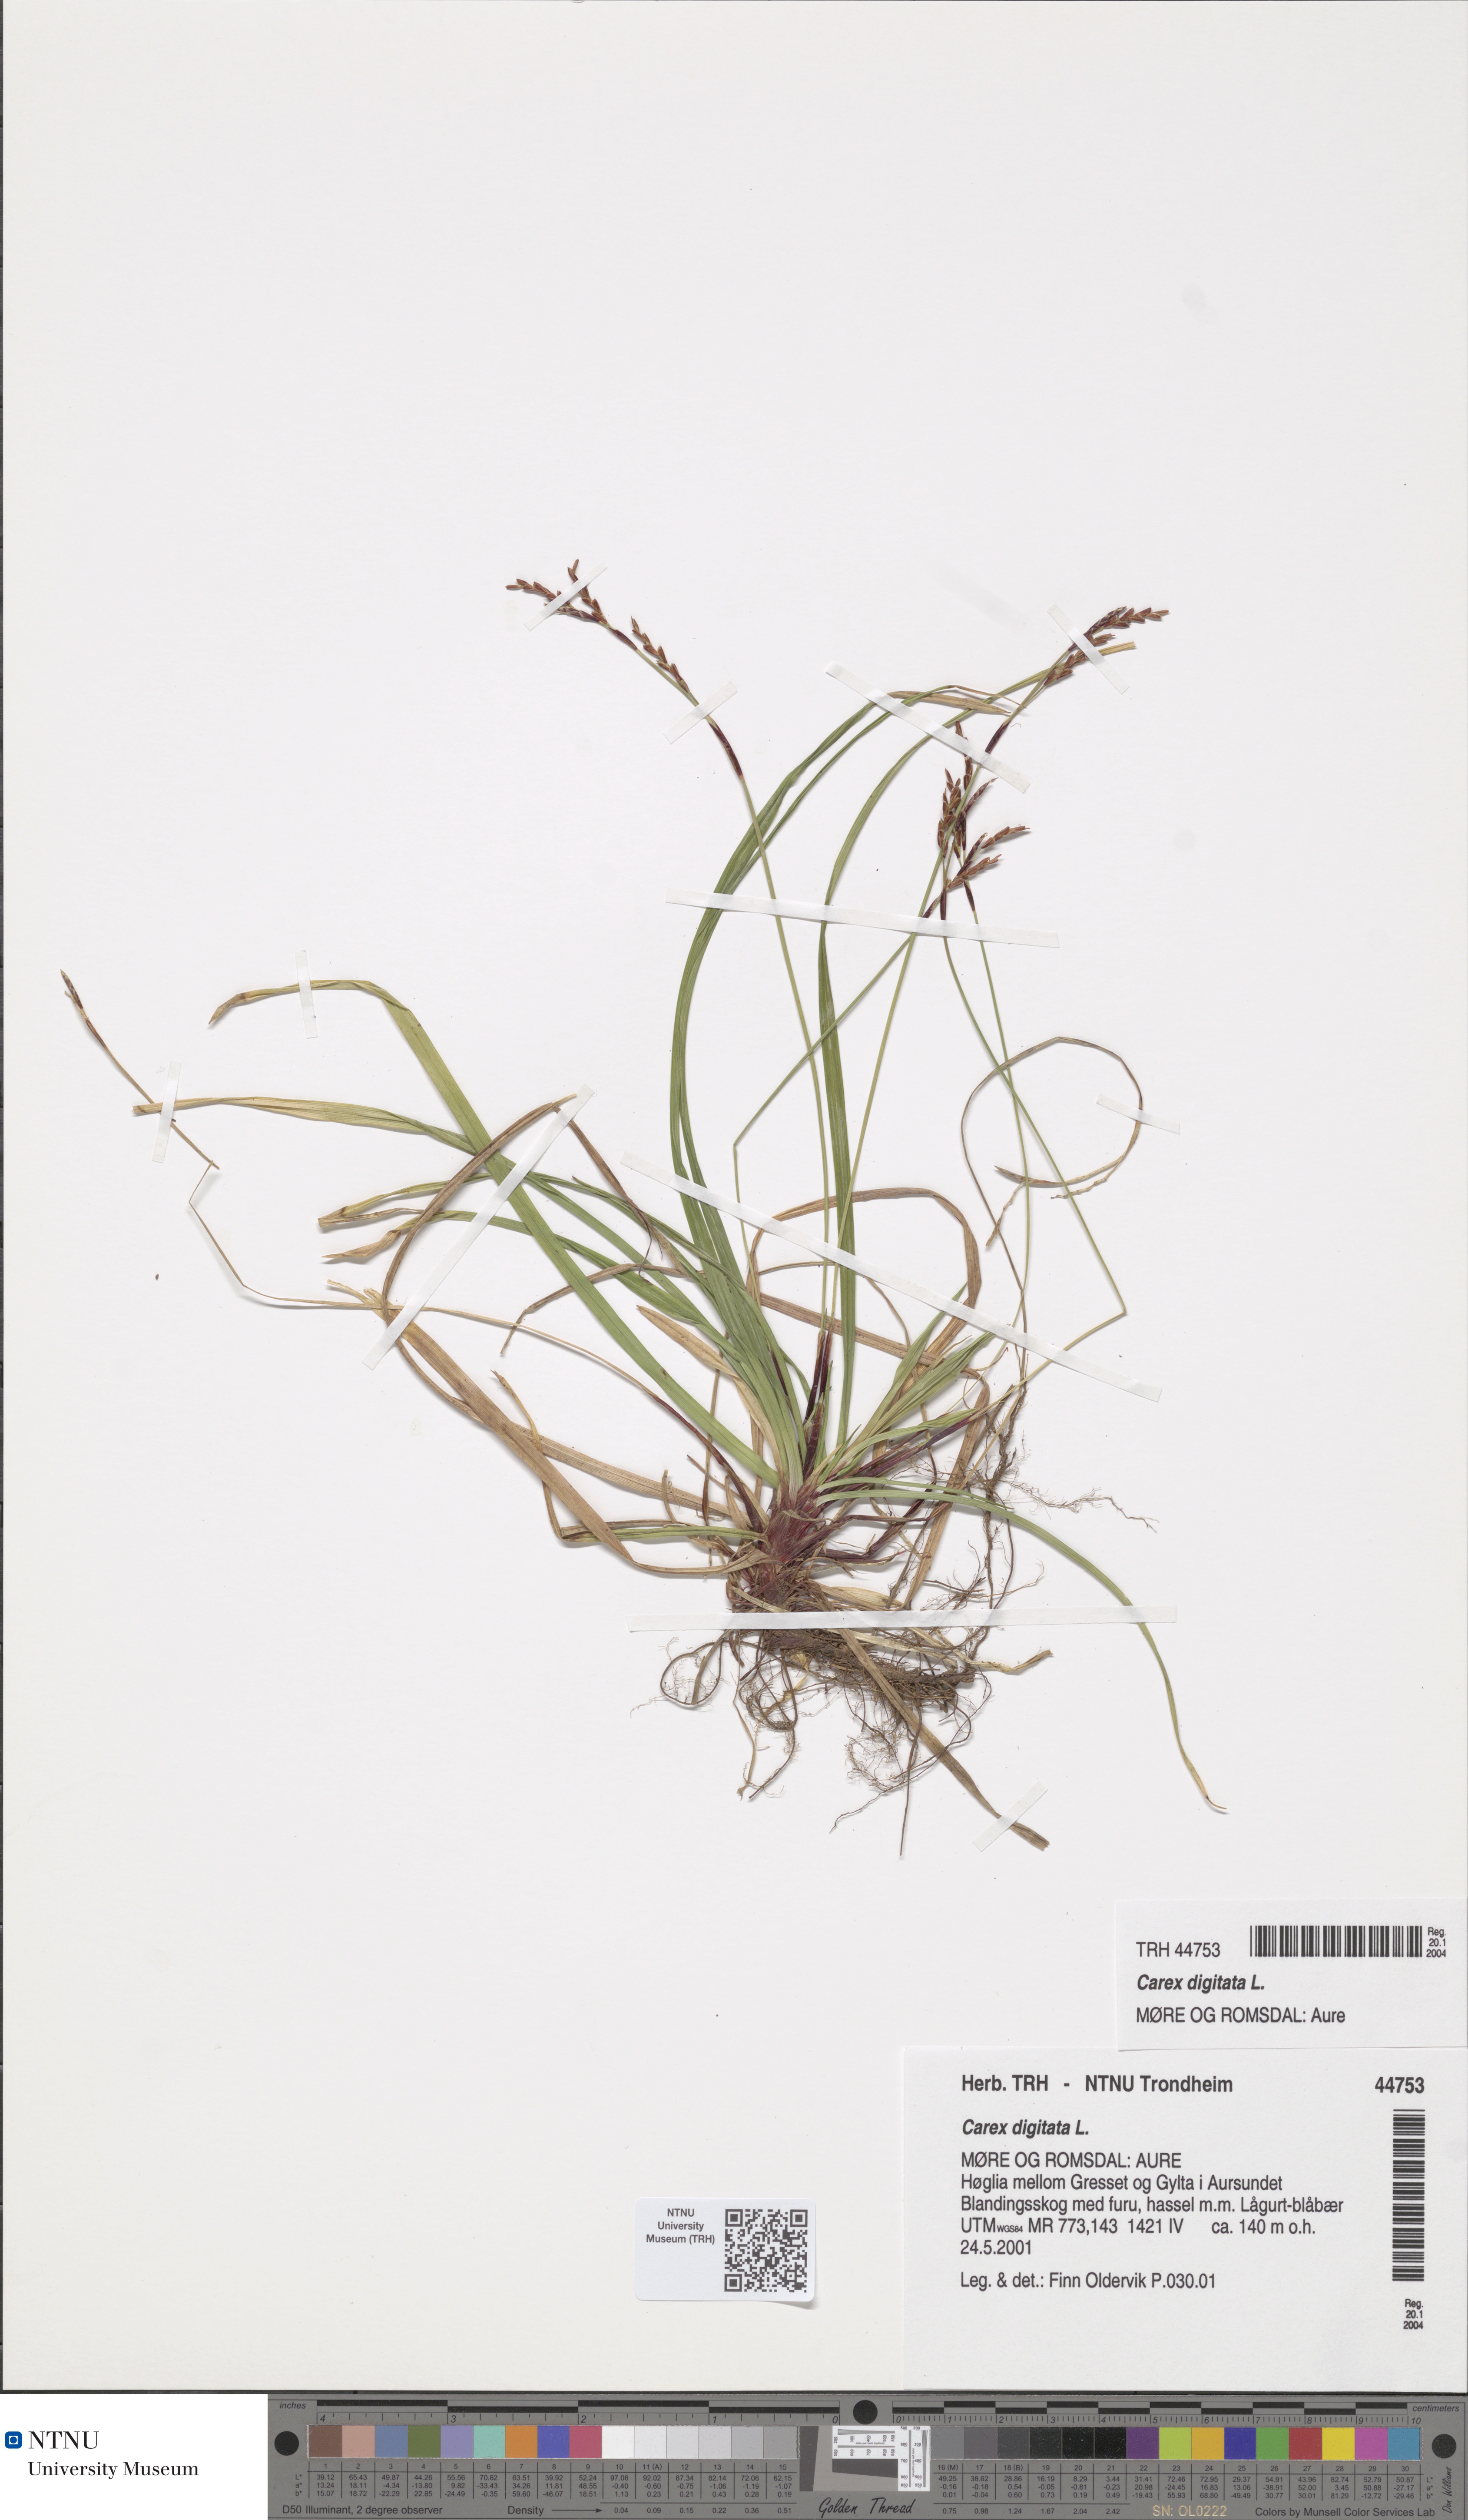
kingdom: Plantae
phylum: Tracheophyta
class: Liliopsida
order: Poales
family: Cyperaceae
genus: Carex
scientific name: Carex digitata
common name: Fingered sedge
